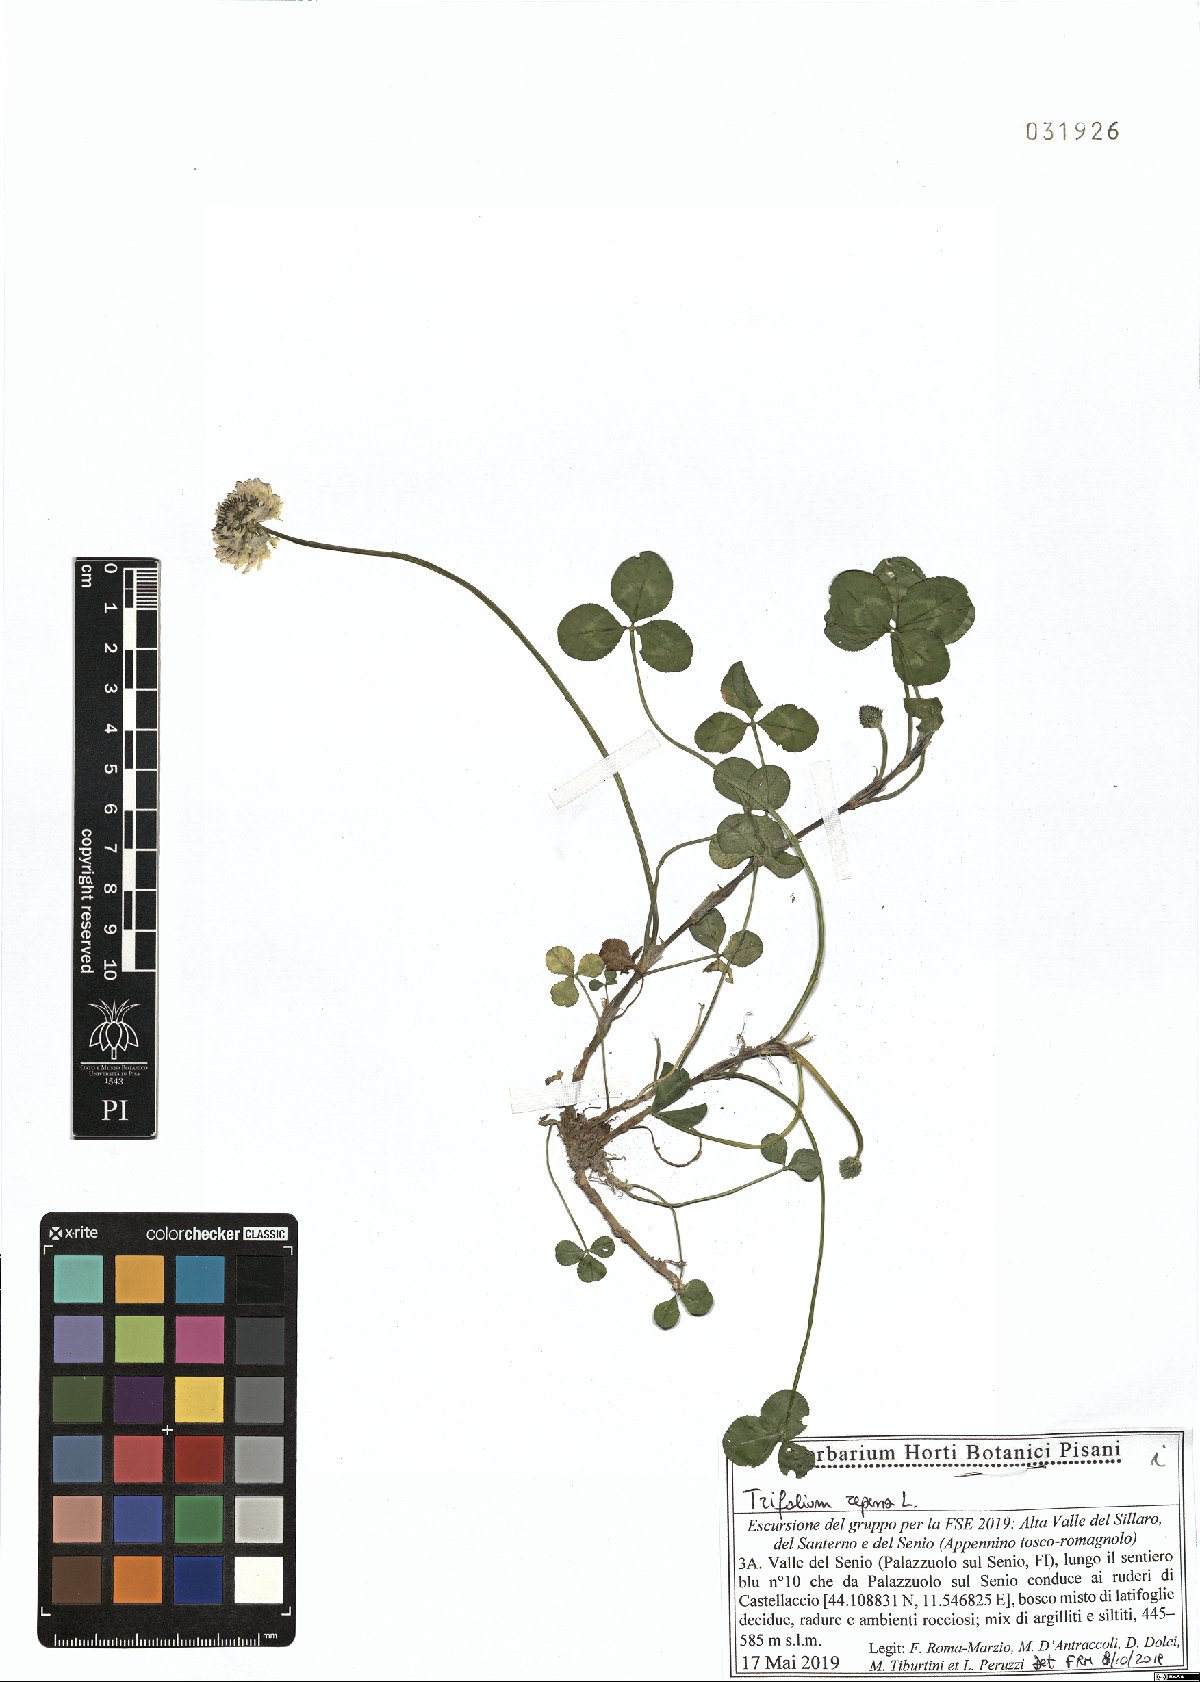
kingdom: Plantae
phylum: Tracheophyta
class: Magnoliopsida
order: Fabales
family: Fabaceae
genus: Trifolium
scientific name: Trifolium repens
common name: White clover
